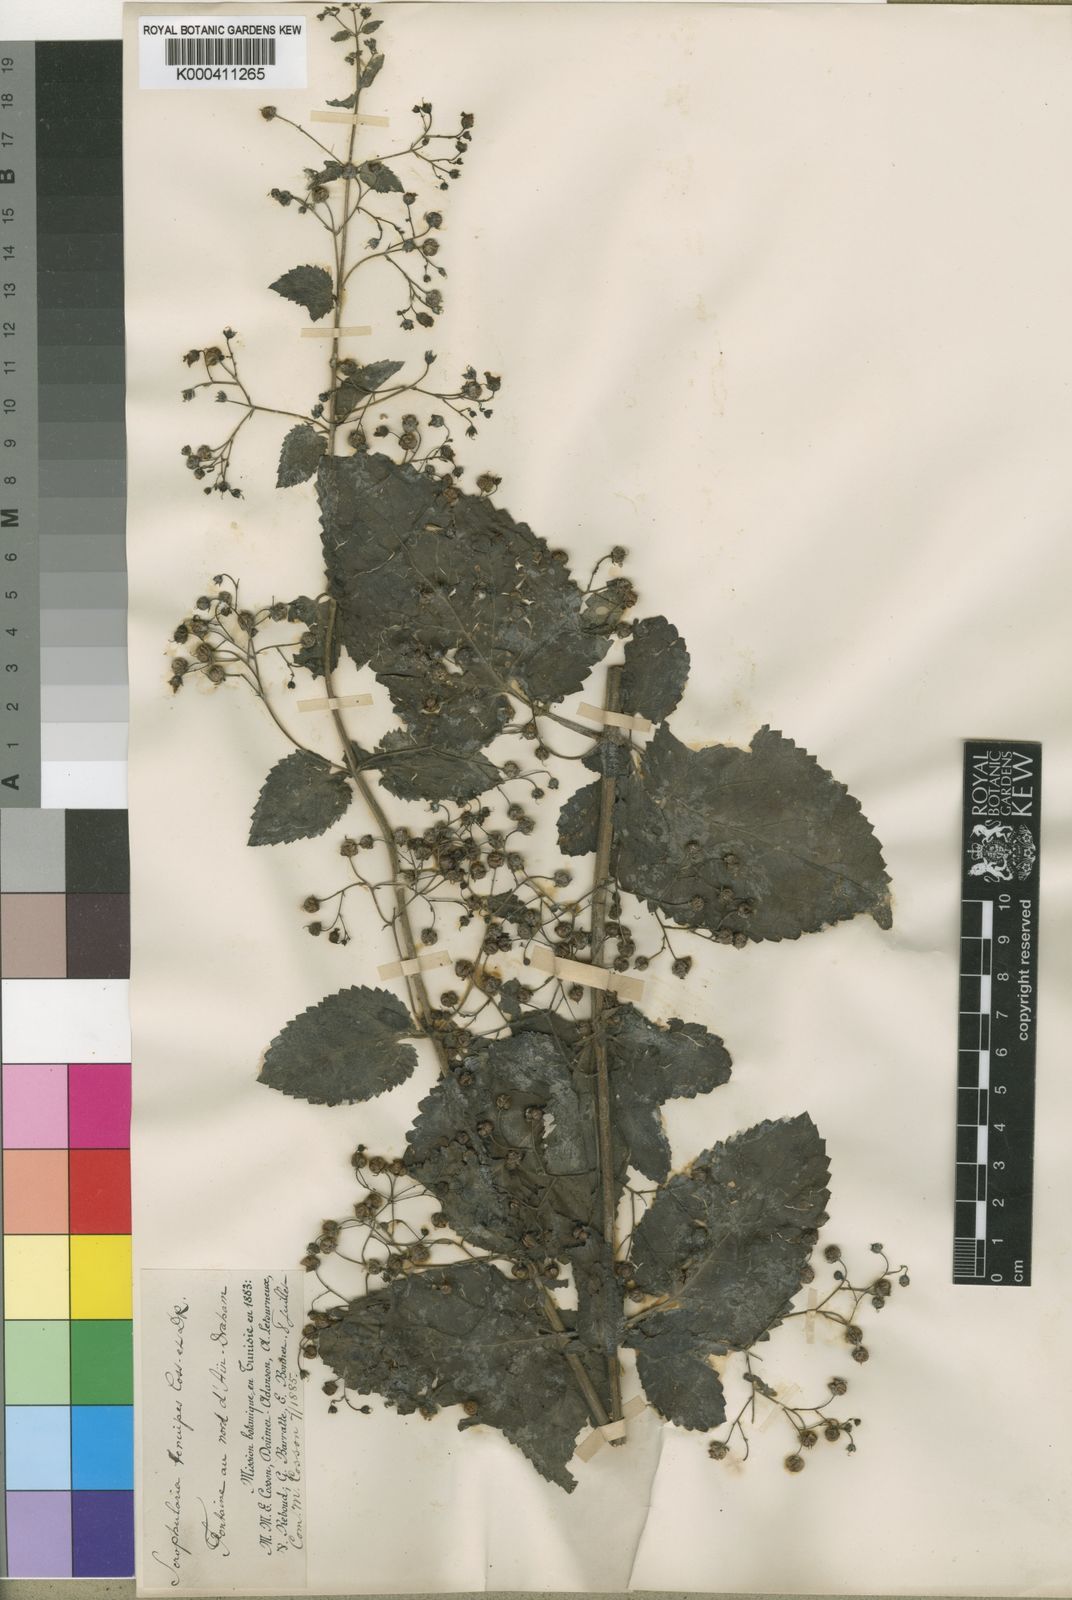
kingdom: Plantae
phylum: Tracheophyta
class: Magnoliopsida
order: Lamiales
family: Scrophulariaceae
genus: Scrophularia
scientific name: Scrophularia tenuipes
